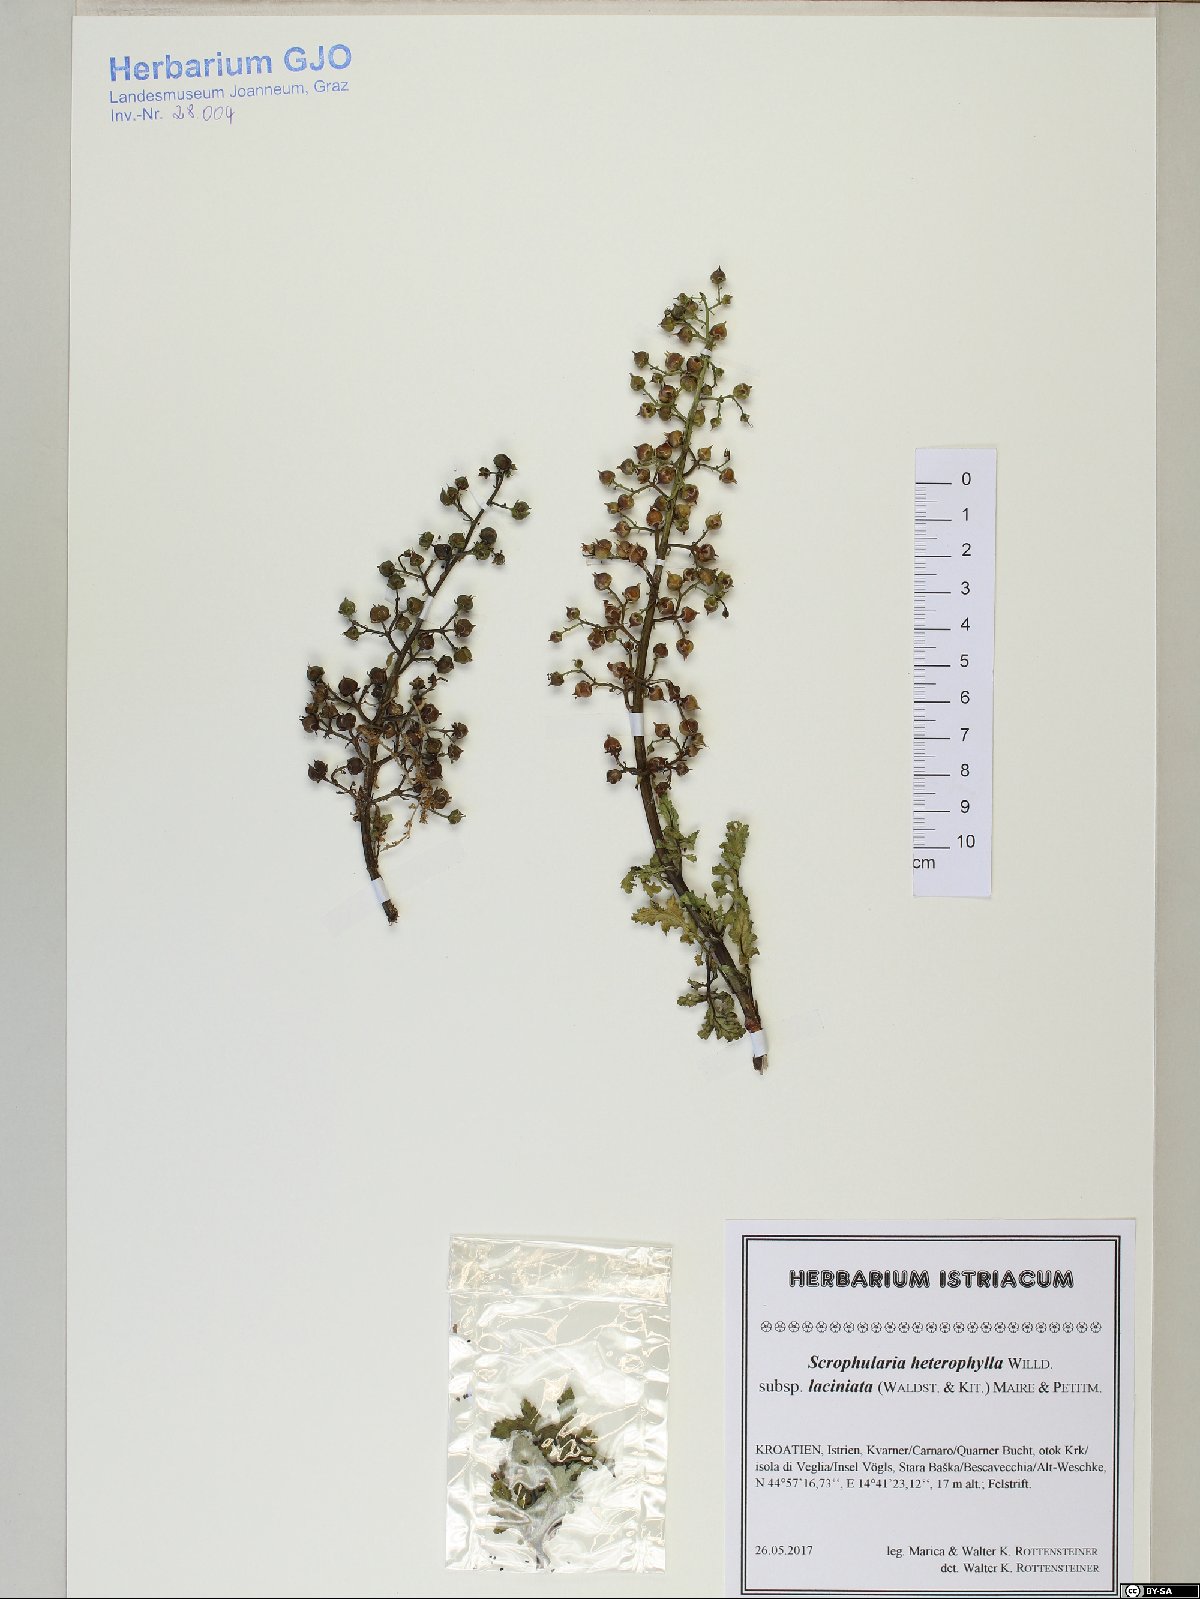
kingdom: Plantae
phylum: Tracheophyta
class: Magnoliopsida
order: Lamiales
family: Scrophulariaceae
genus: Scrophularia
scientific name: Scrophularia laciniata
